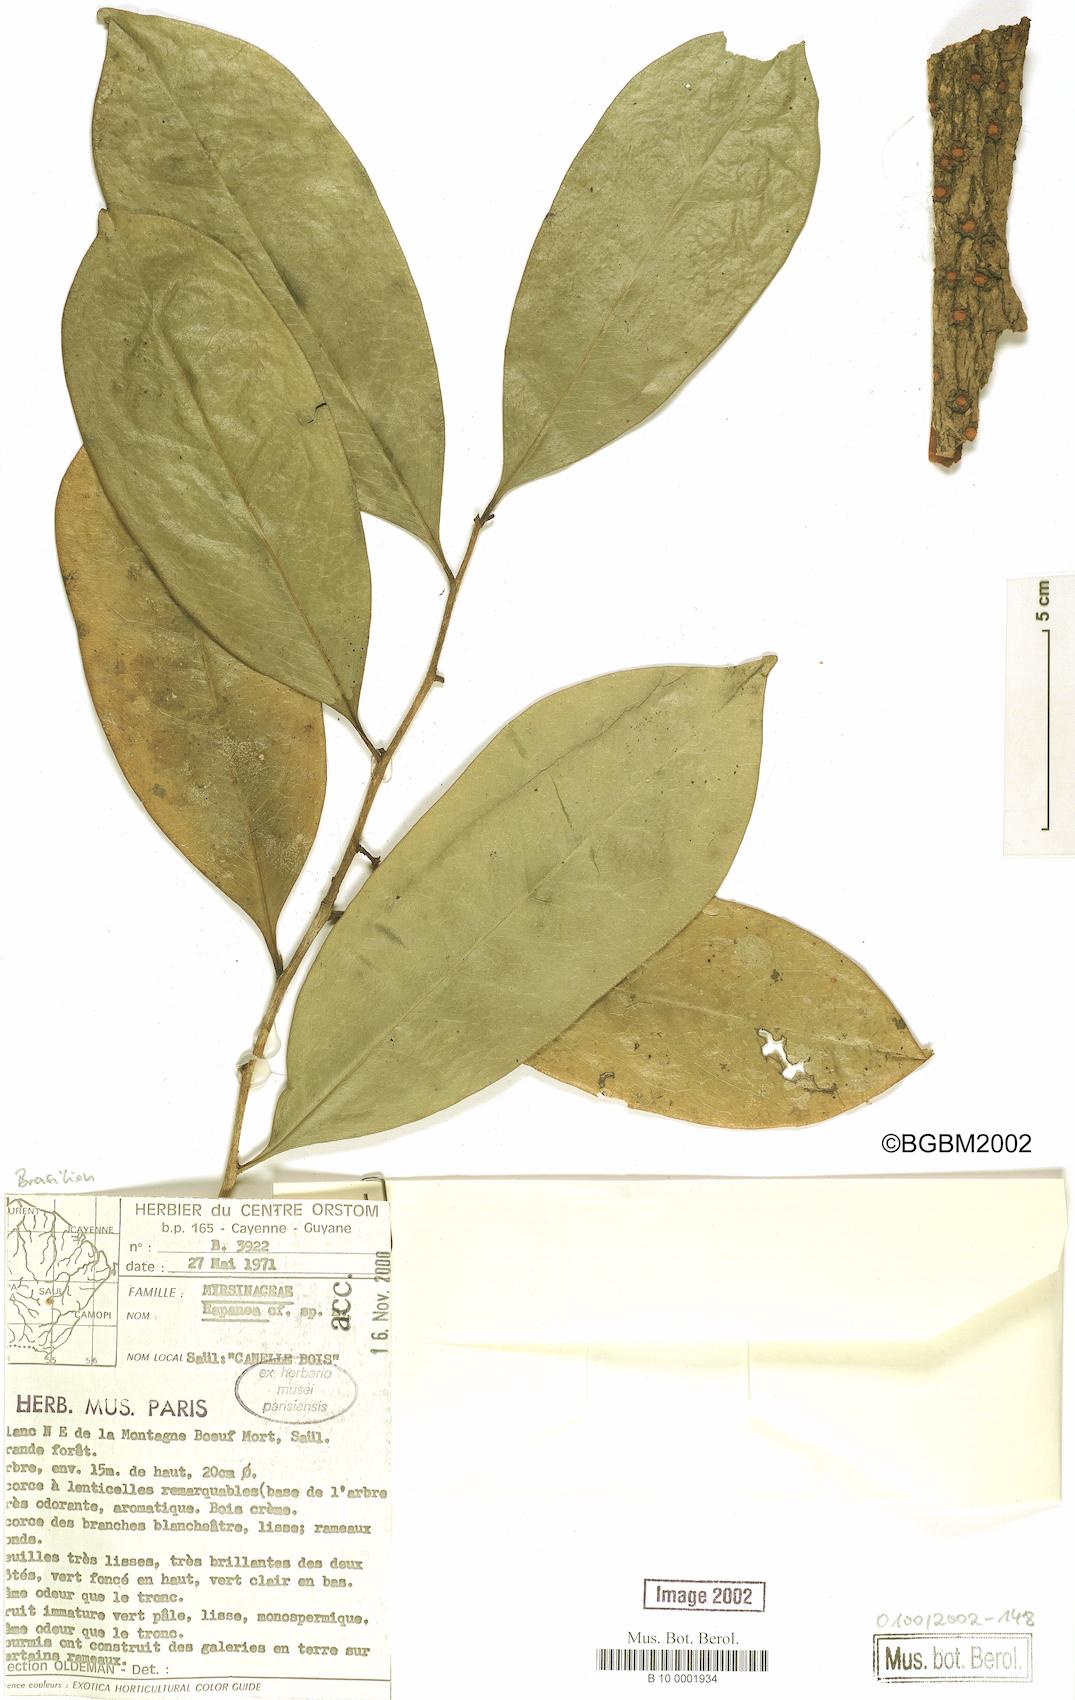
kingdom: Plantae
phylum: Tracheophyta
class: Magnoliopsida
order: Ericales
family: Primulaceae
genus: Myrsine
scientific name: Myrsine
